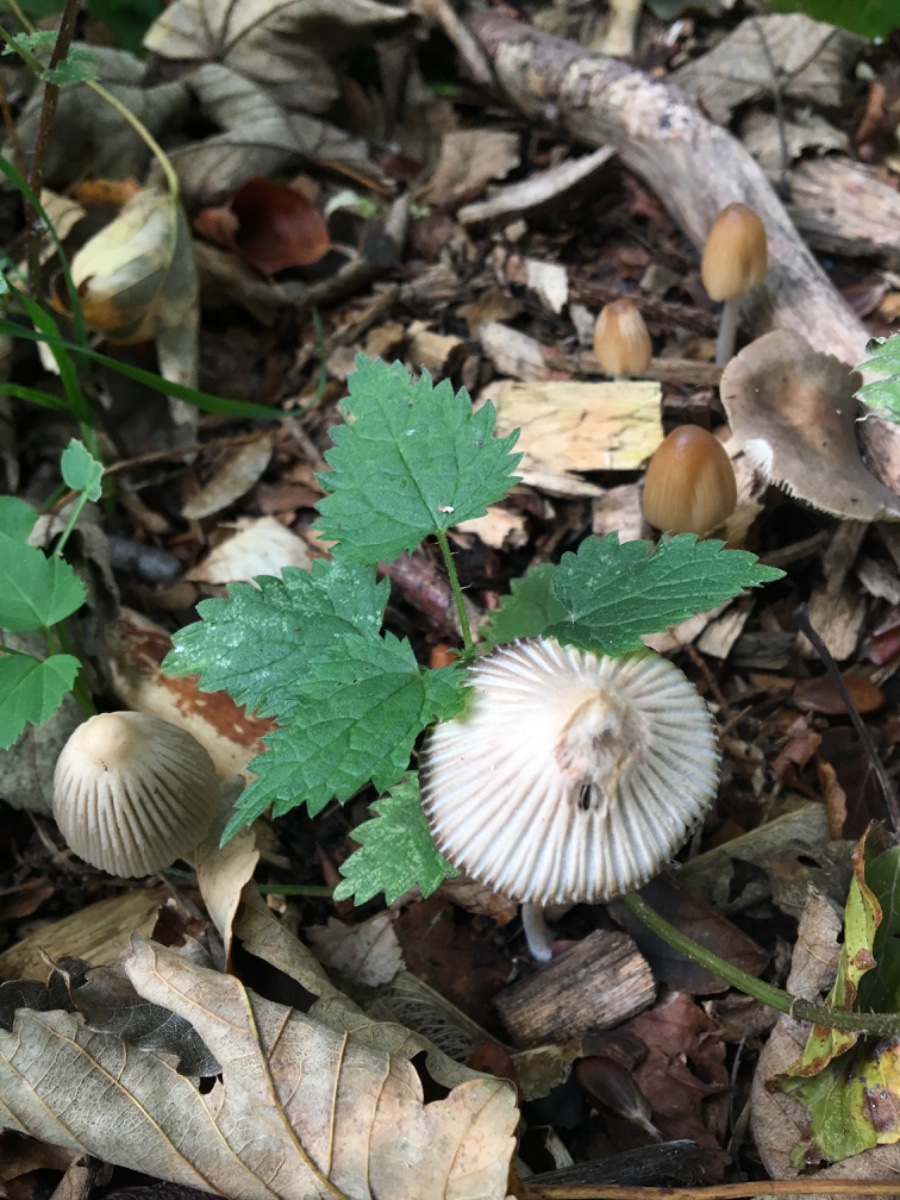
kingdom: Fungi
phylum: Basidiomycota
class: Agaricomycetes
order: Agaricales
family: Psathyrellaceae
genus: Coprinellus
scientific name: Coprinellus
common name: blækhat
